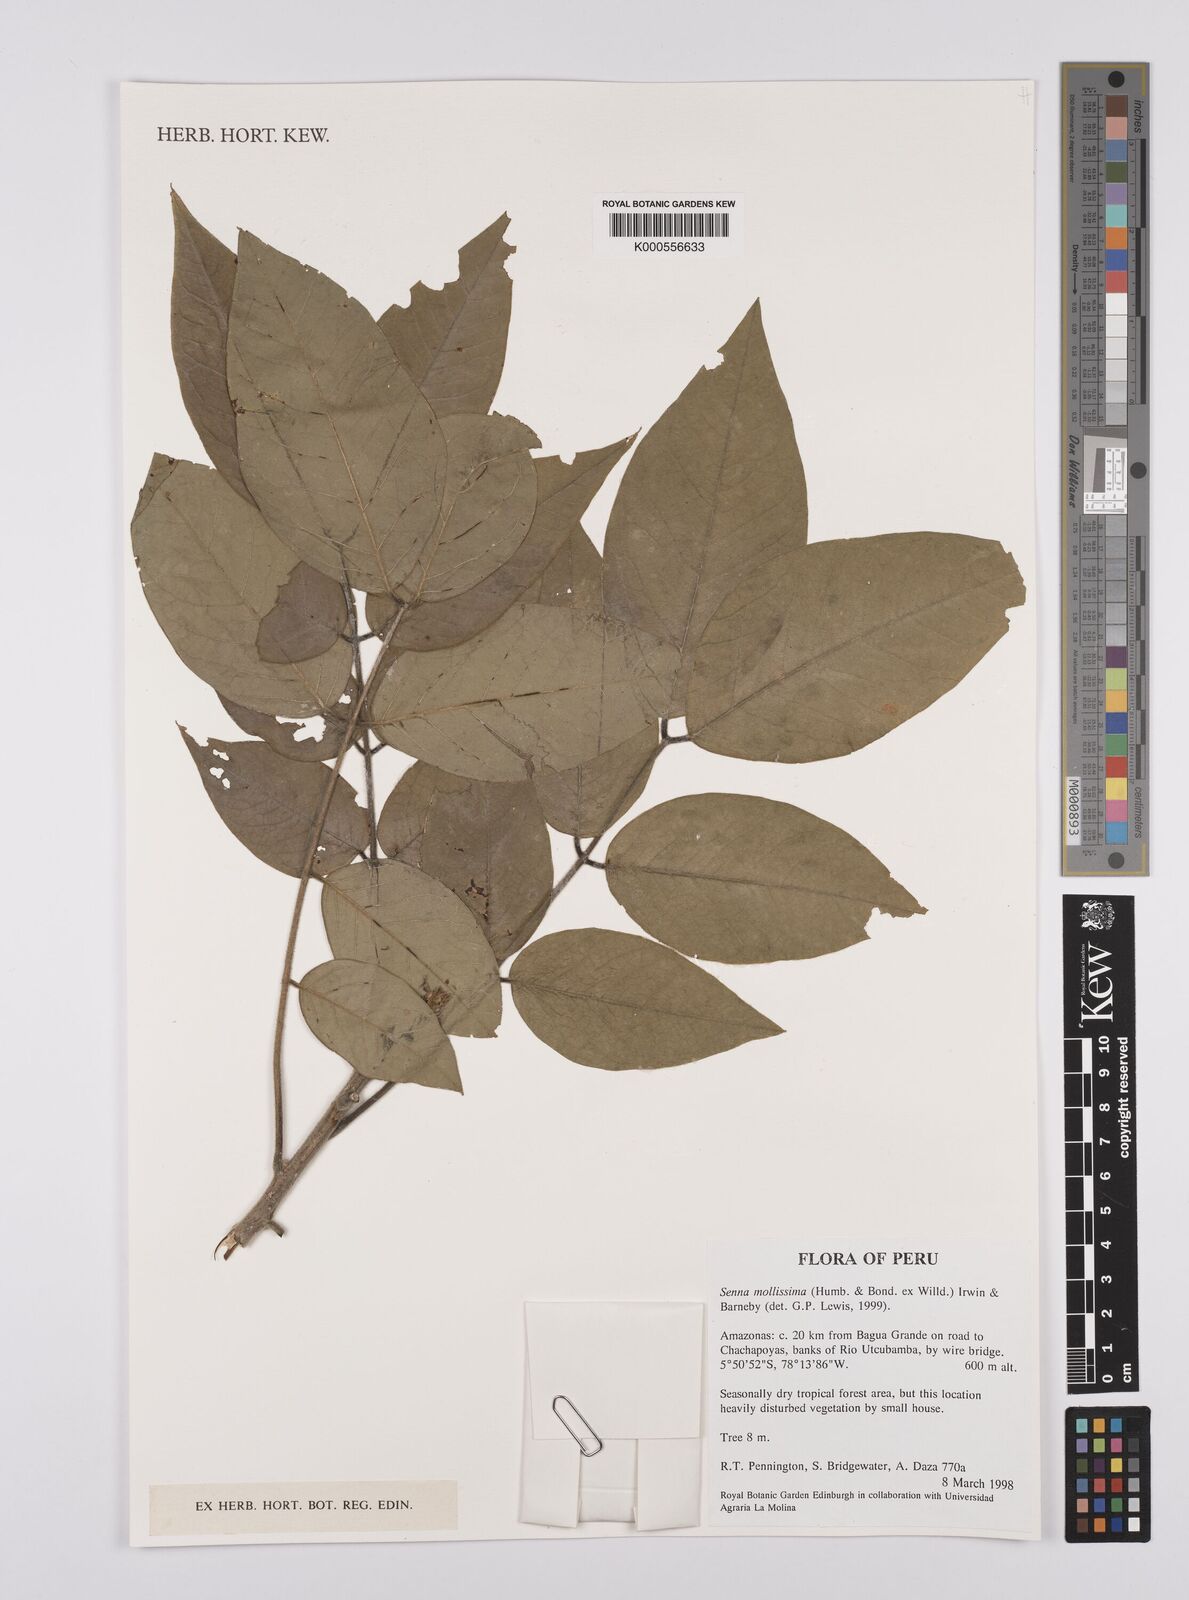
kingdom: Plantae
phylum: Tracheophyta
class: Magnoliopsida
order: Fabales
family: Fabaceae
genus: Senna
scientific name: Senna mollissima
